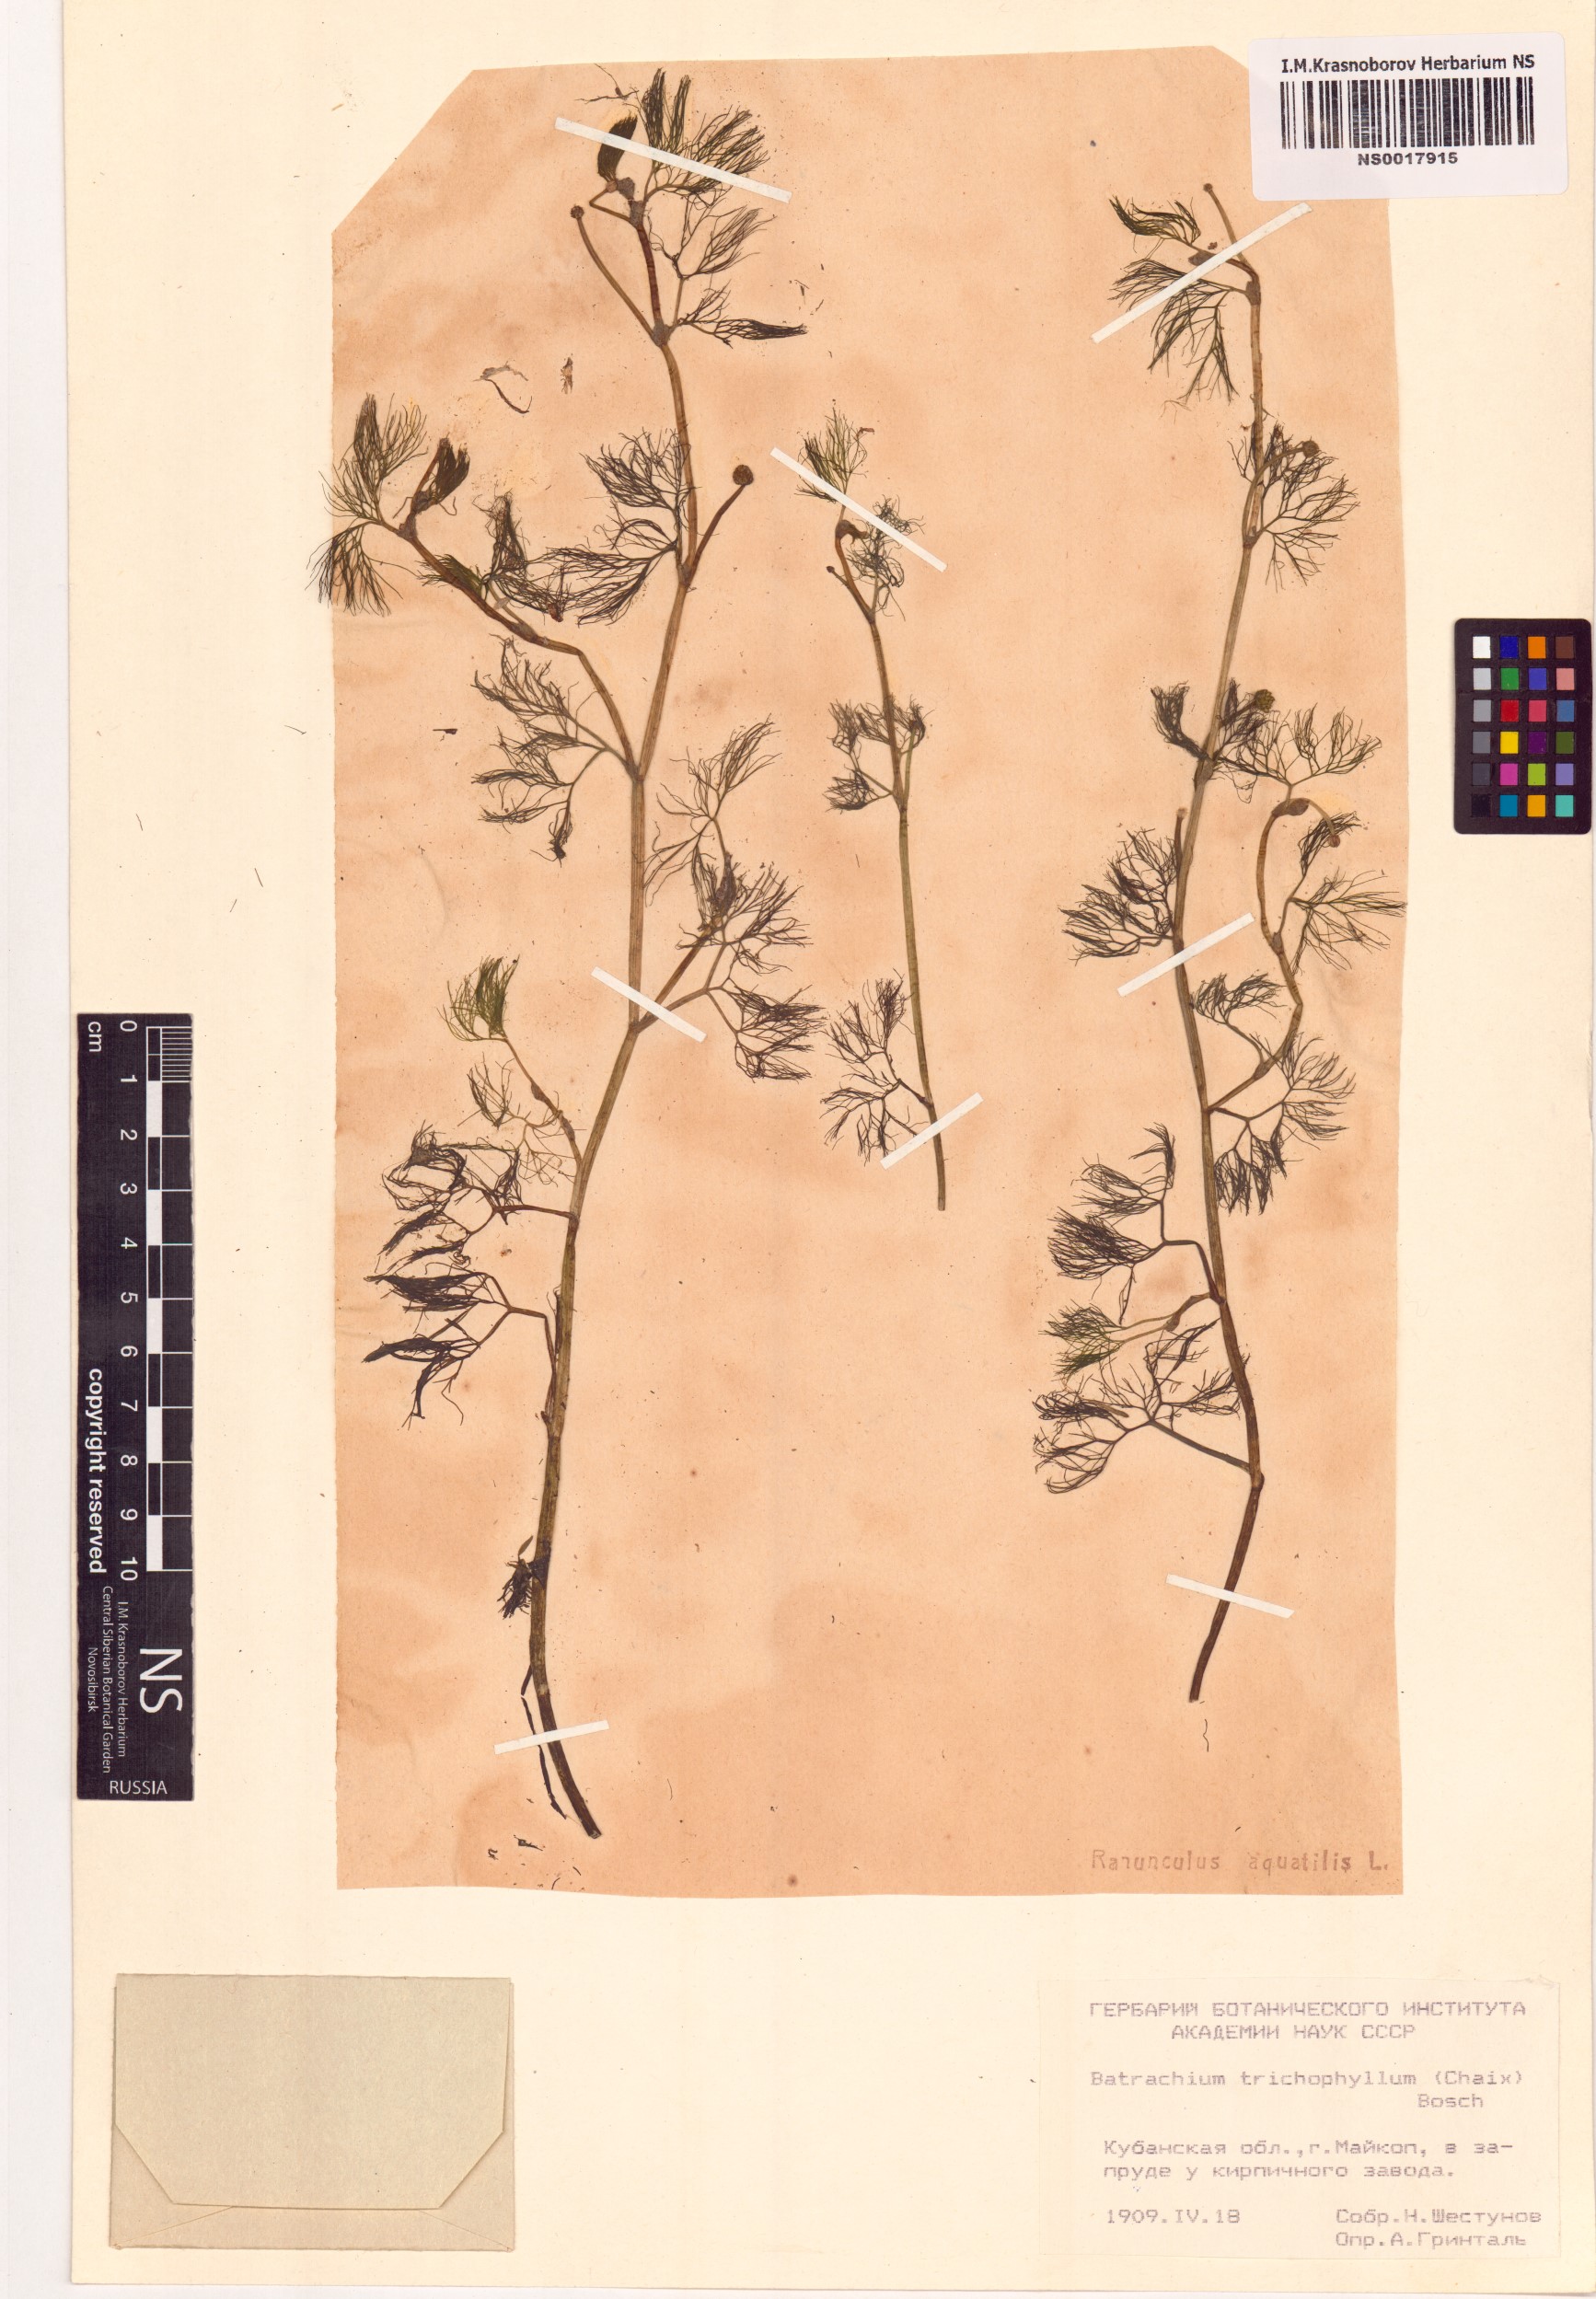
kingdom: Plantae
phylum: Tracheophyta
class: Magnoliopsida
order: Ranunculales
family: Ranunculaceae
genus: Ranunculus
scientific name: Ranunculus trichophyllus
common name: Thread-leaved water-crowfoot
